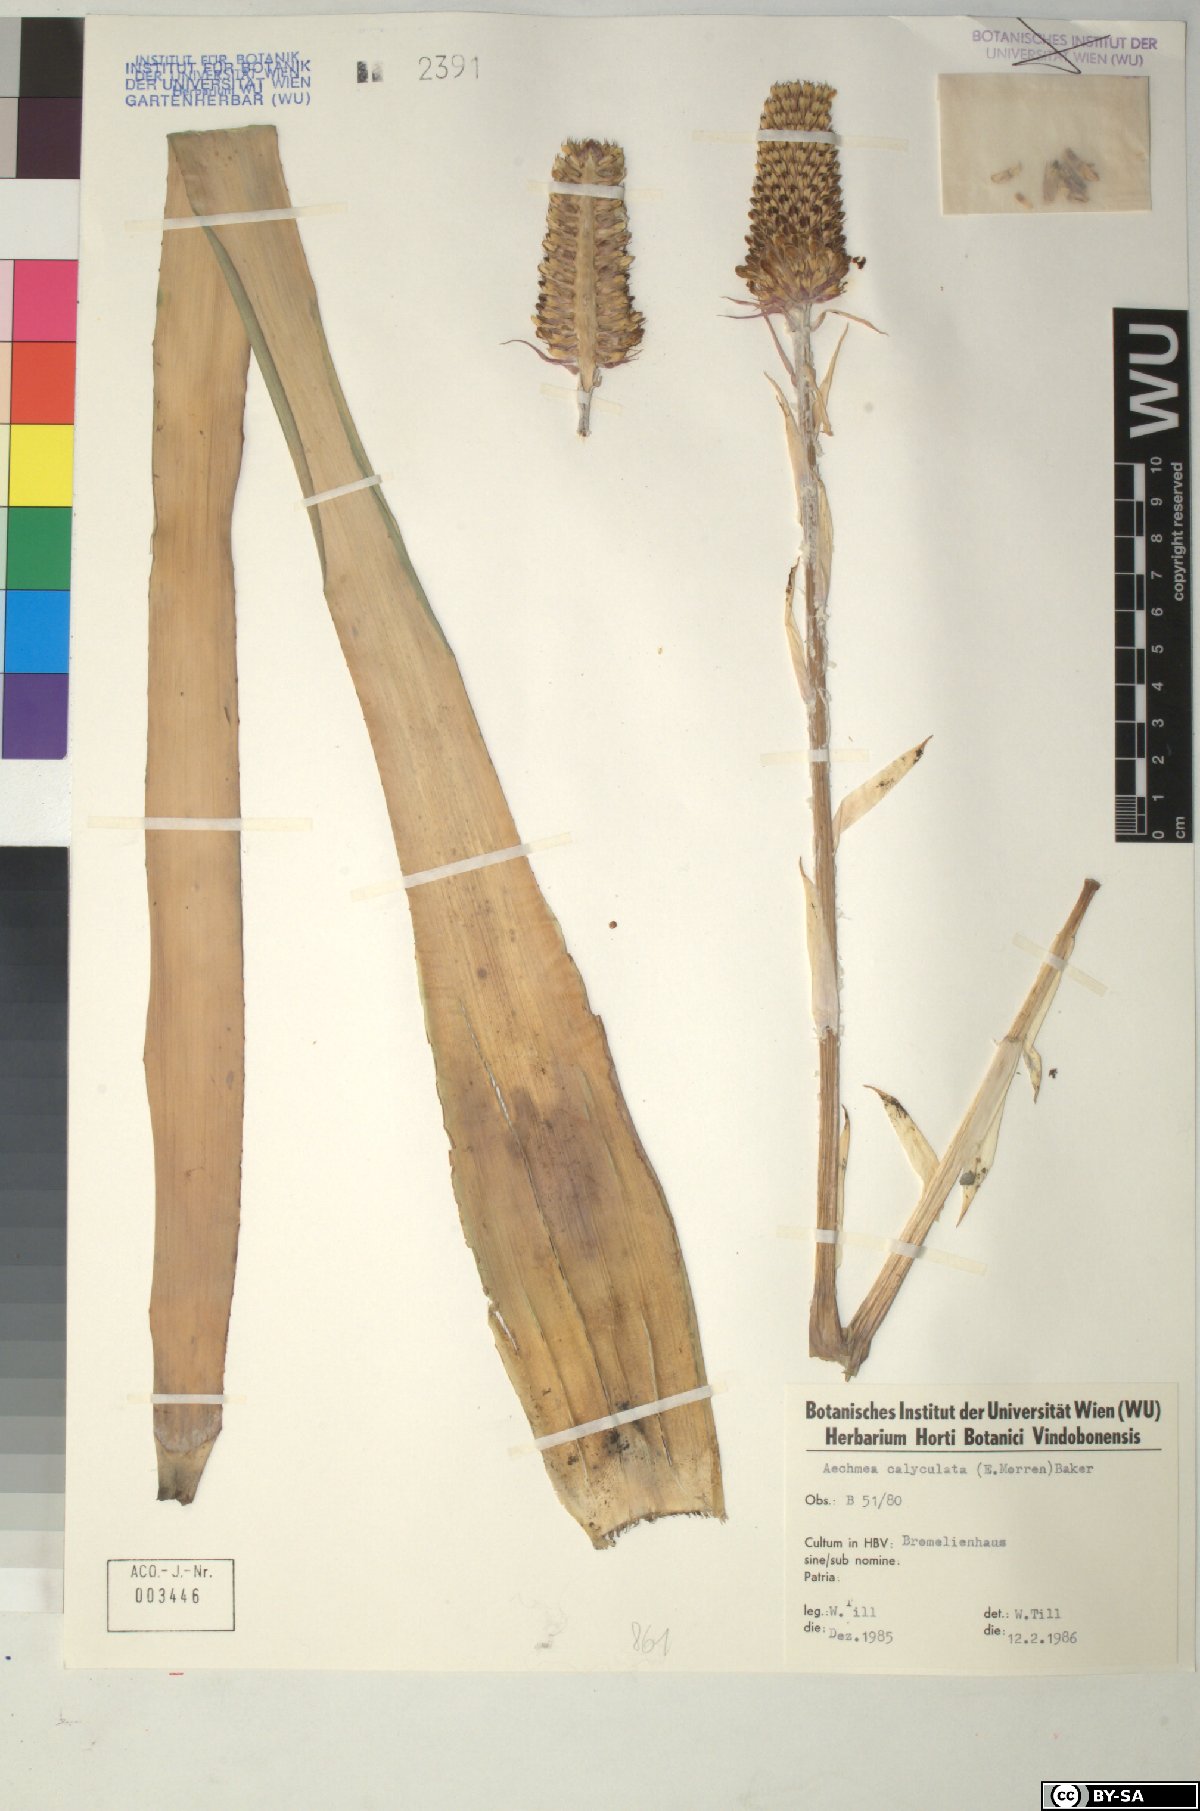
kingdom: Plantae
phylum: Tracheophyta
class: Liliopsida
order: Poales
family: Bromeliaceae
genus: Aechmea
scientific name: Aechmea
